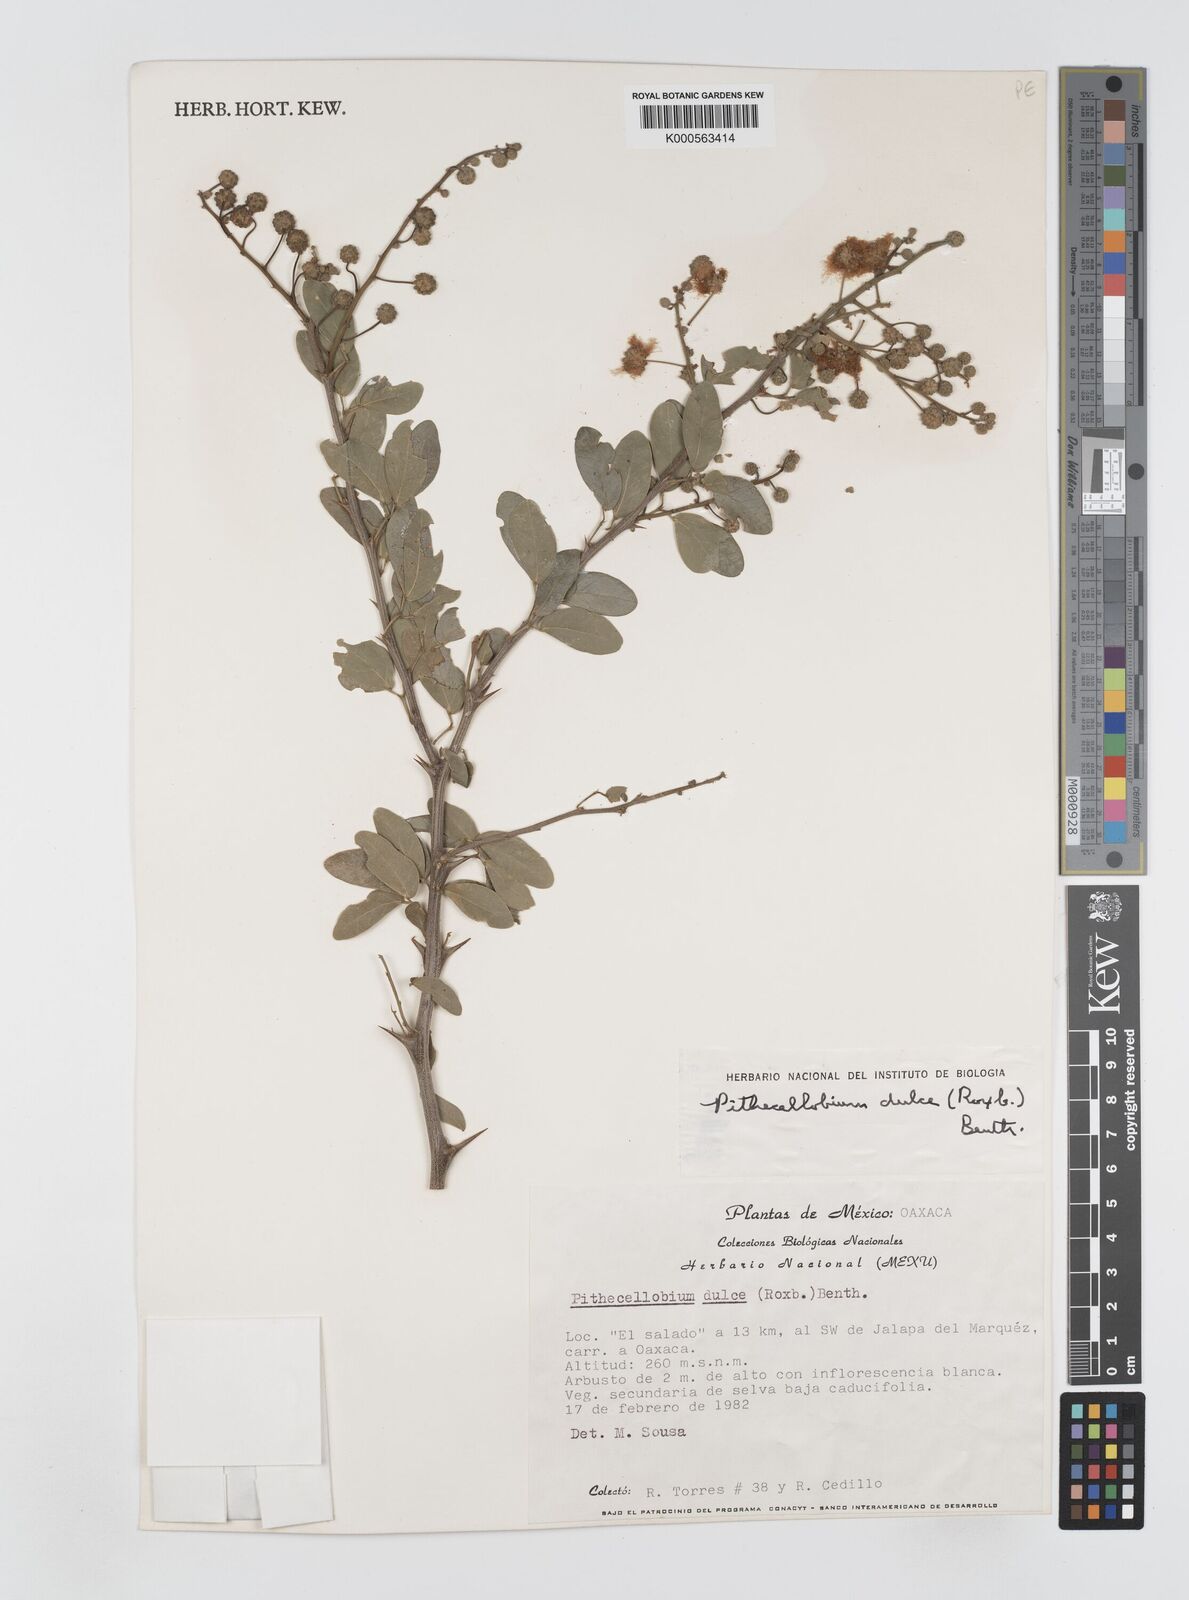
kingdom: Plantae
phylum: Tracheophyta
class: Magnoliopsida
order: Fabales
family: Fabaceae
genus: Pithecellobium
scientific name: Pithecellobium dulce
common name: Monkeypod
